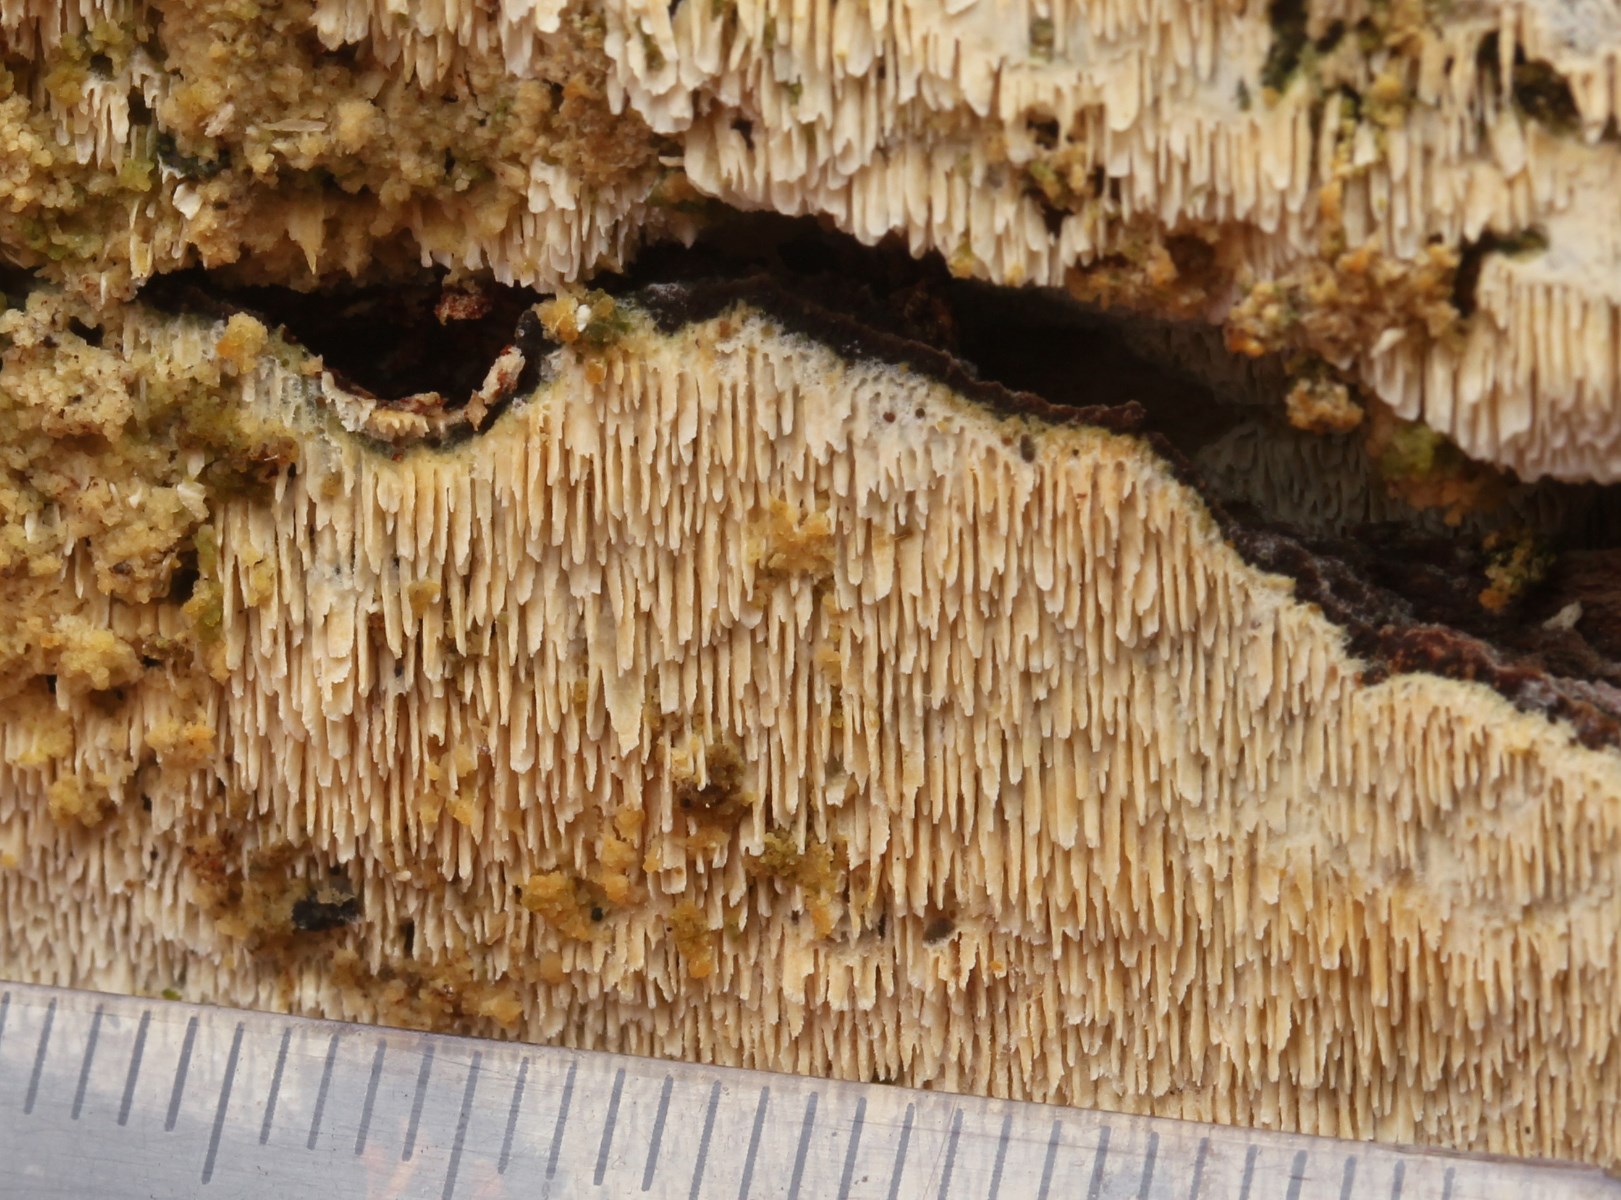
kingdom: Fungi
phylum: Basidiomycota
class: Agaricomycetes
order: Hymenochaetales
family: Schizoporaceae
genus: Schizopora
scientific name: Schizopora paradoxa
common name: hvid tandsvamp
